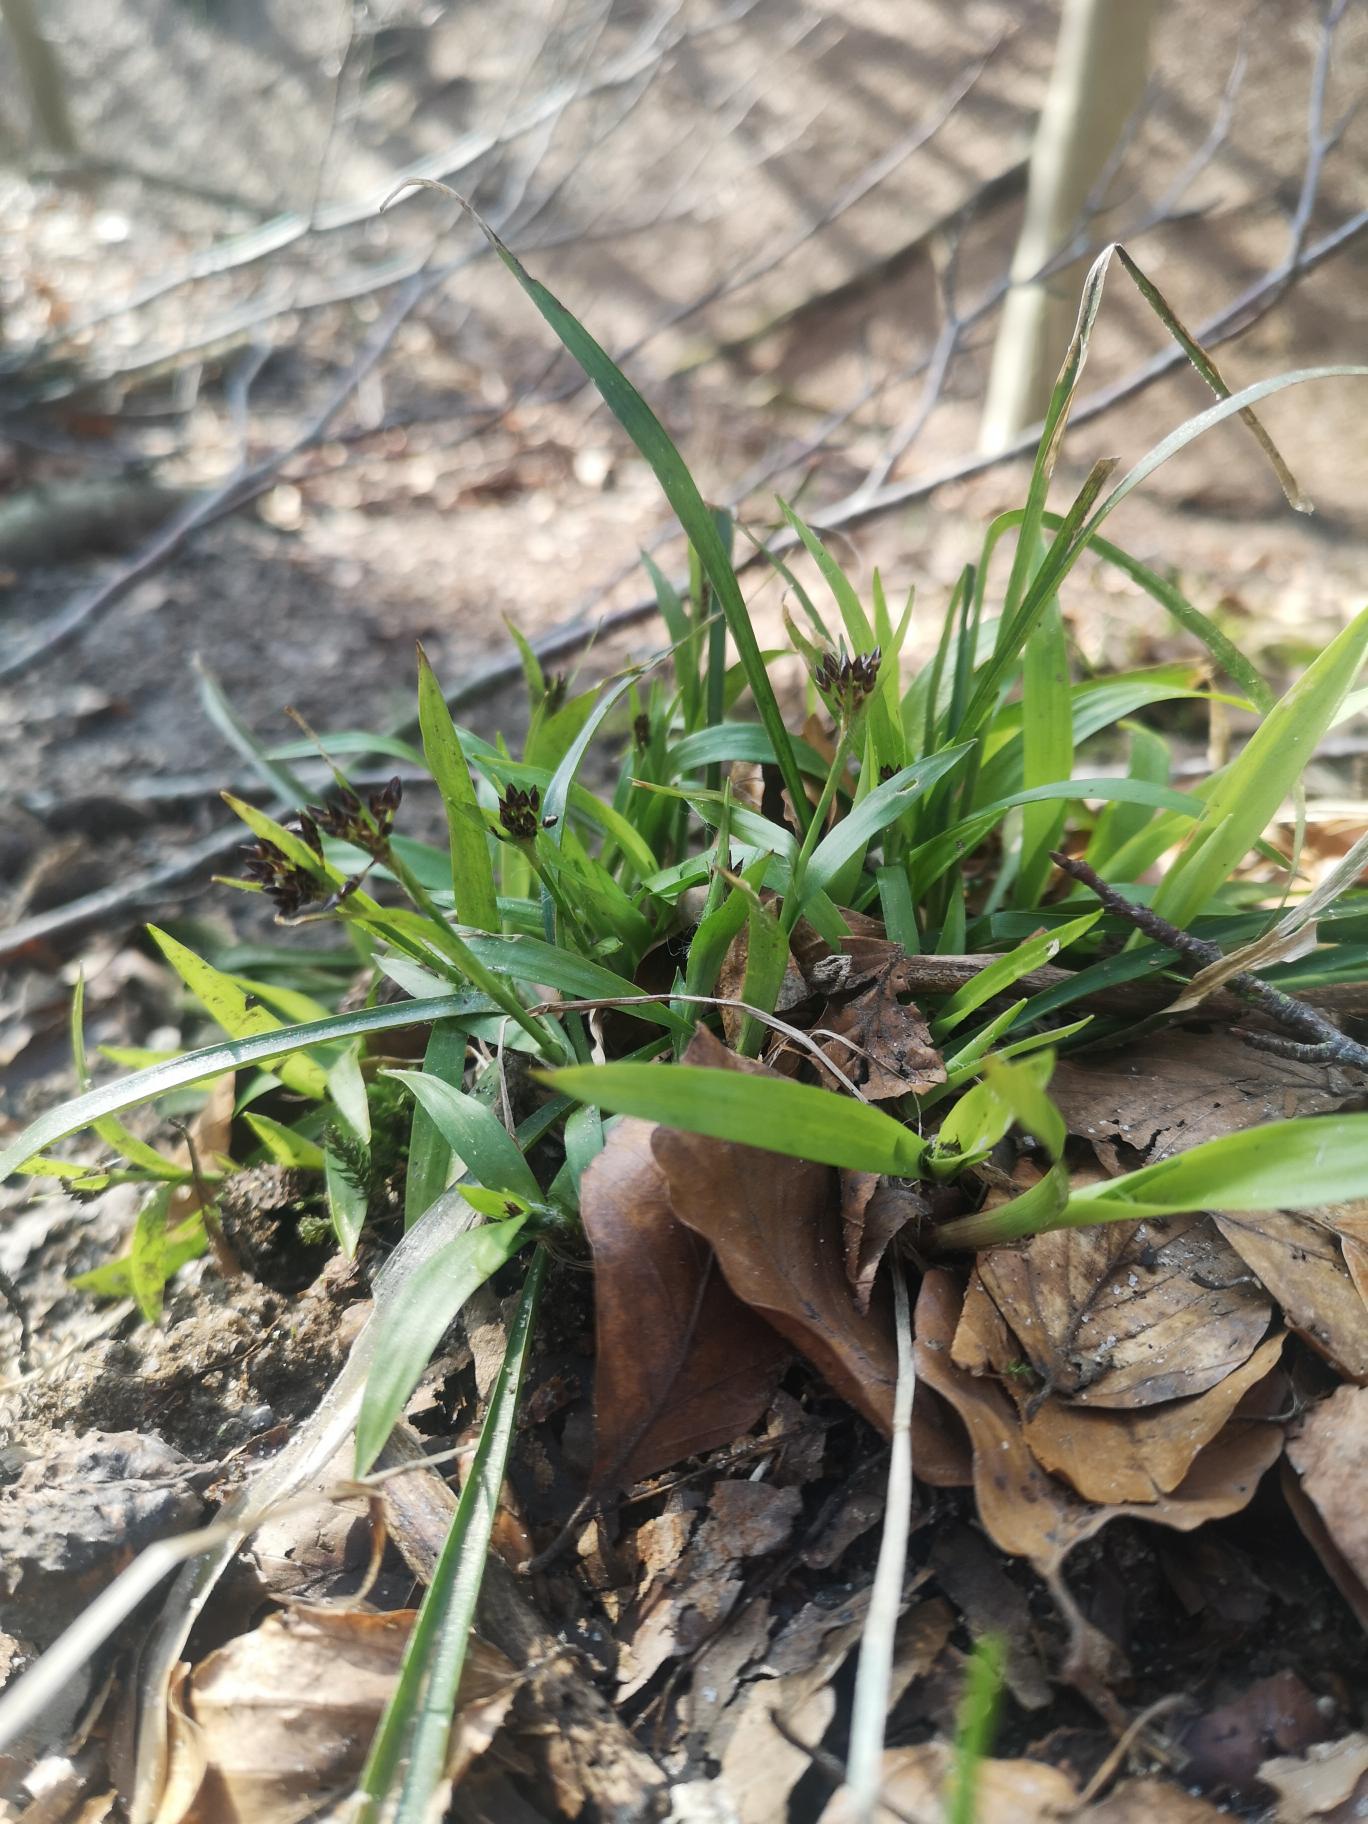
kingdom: Plantae
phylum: Tracheophyta
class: Liliopsida
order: Poales
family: Juncaceae
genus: Luzula
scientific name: Luzula pilosa
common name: Håret frytle
